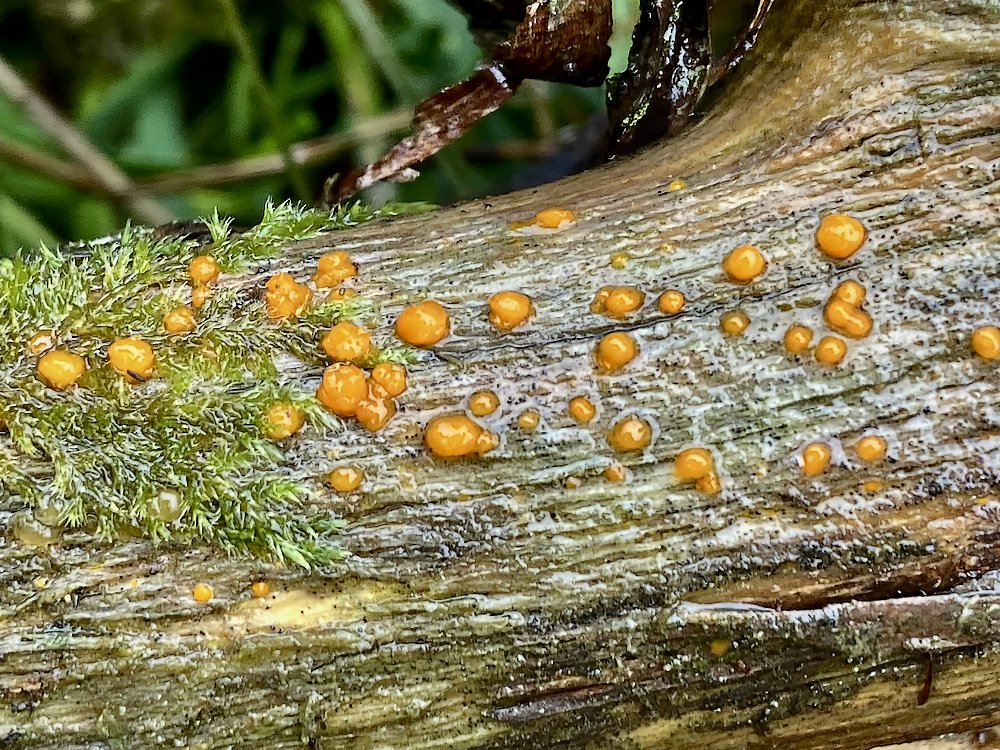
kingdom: Fungi
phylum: Basidiomycota
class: Dacrymycetes
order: Dacrymycetales
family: Dacrymycetaceae
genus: Dacrymyces
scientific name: Dacrymyces stillatus
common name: almindelig tåresvamp
